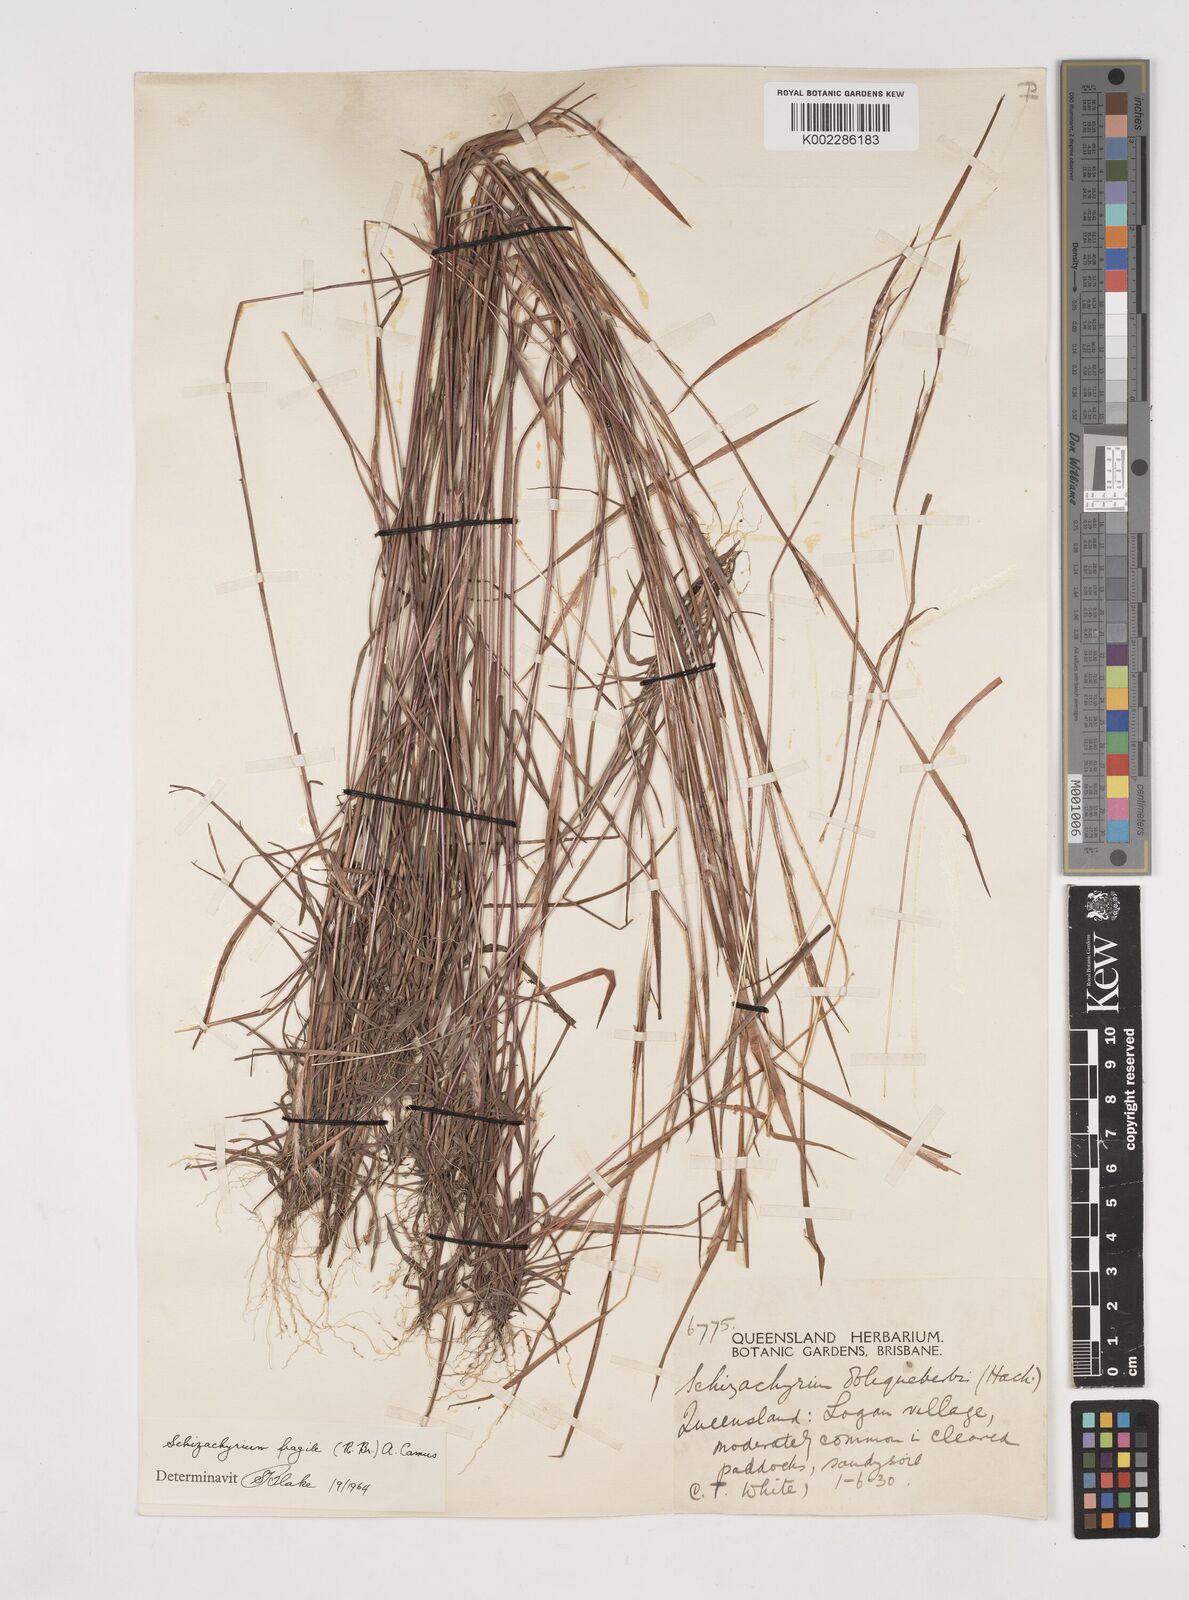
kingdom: Plantae
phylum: Tracheophyta
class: Liliopsida
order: Poales
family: Poaceae
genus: Schizachyrium
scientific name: Schizachyrium fragile
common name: Red spathe grass
